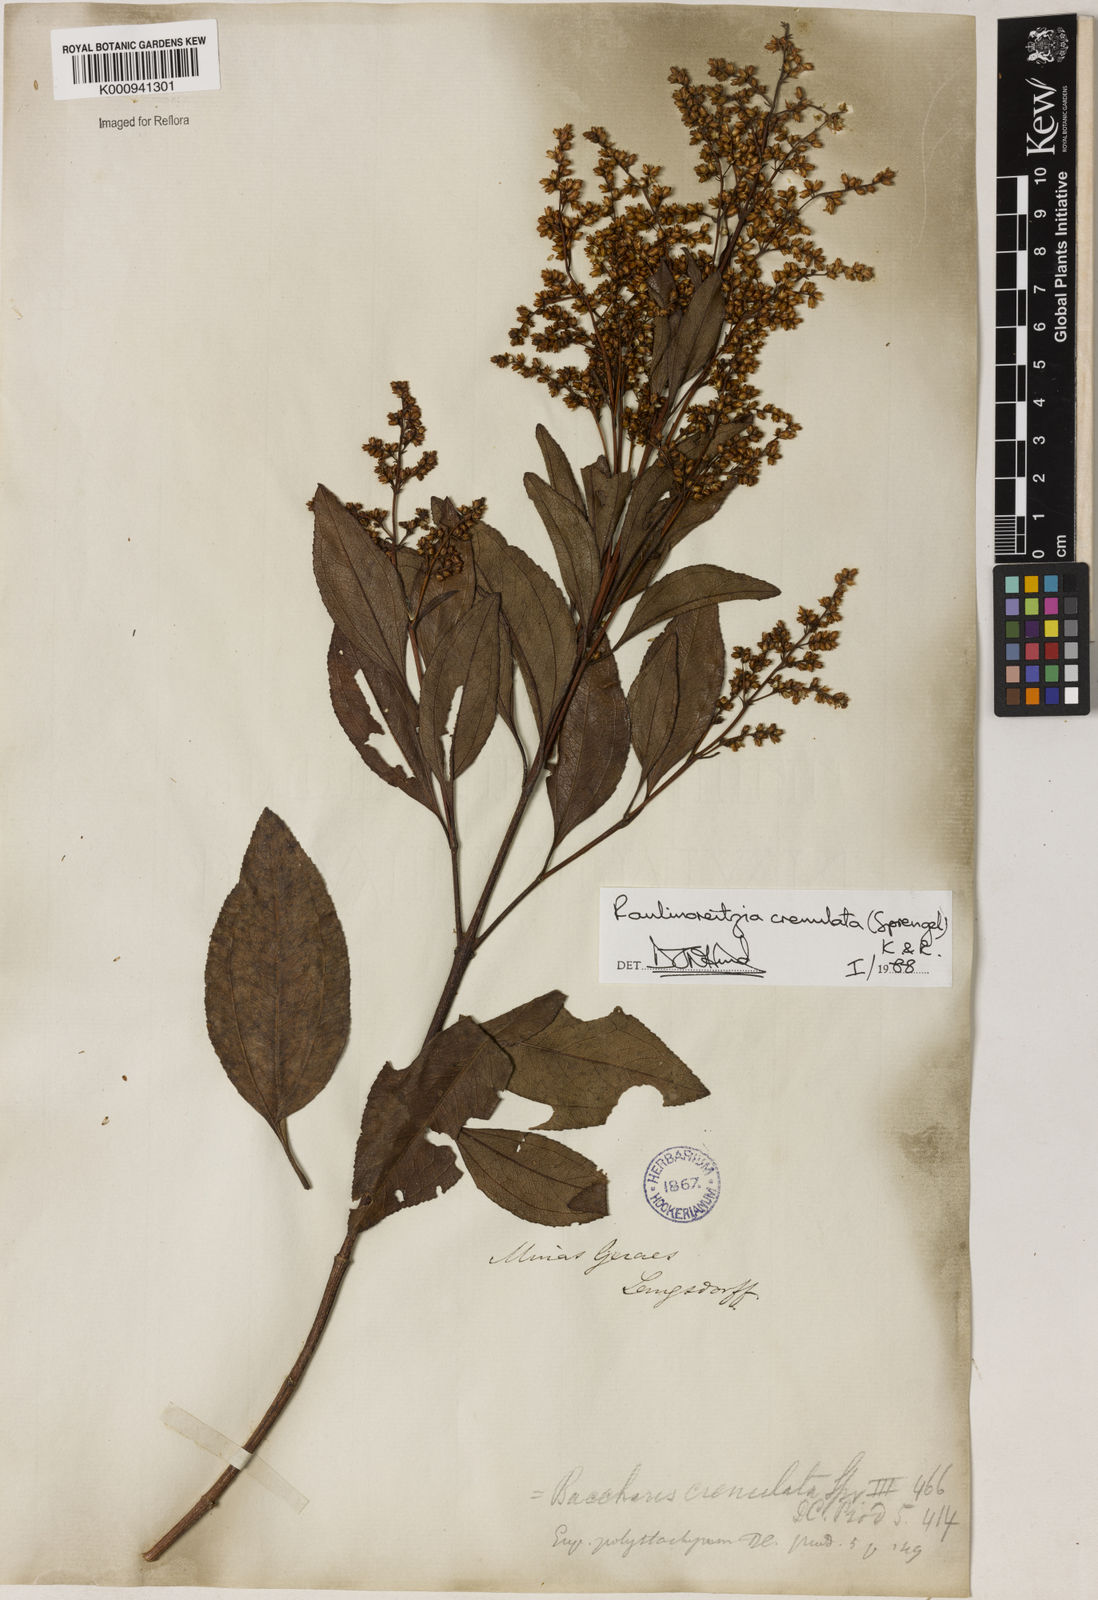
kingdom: Plantae
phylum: Tracheophyta
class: Magnoliopsida
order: Asterales
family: Asteraceae
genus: Raulinoreitzia
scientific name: Raulinoreitzia crenulata
